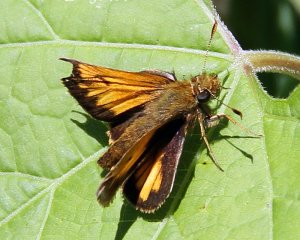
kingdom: Animalia
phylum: Arthropoda
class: Insecta
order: Lepidoptera
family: Hesperiidae
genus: Lon
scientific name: Lon hobomok
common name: Hobomok Skipper
